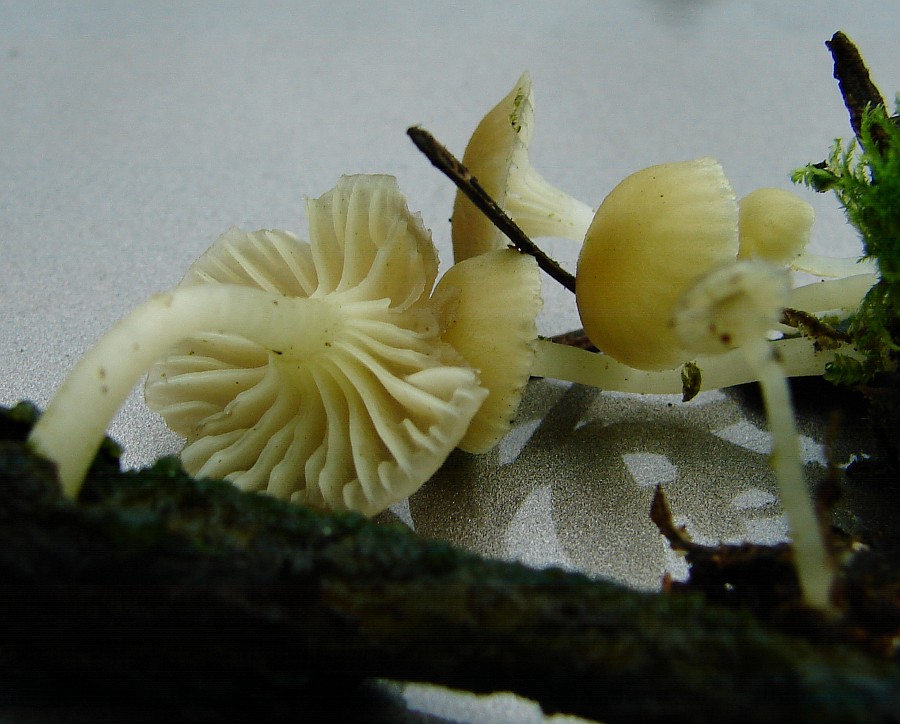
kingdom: Fungi
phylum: Basidiomycota
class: Agaricomycetes
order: Agaricales
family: Hygrophoraceae
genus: Chrysomphalina
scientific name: Chrysomphalina grossula
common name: stød-gyldenblad
